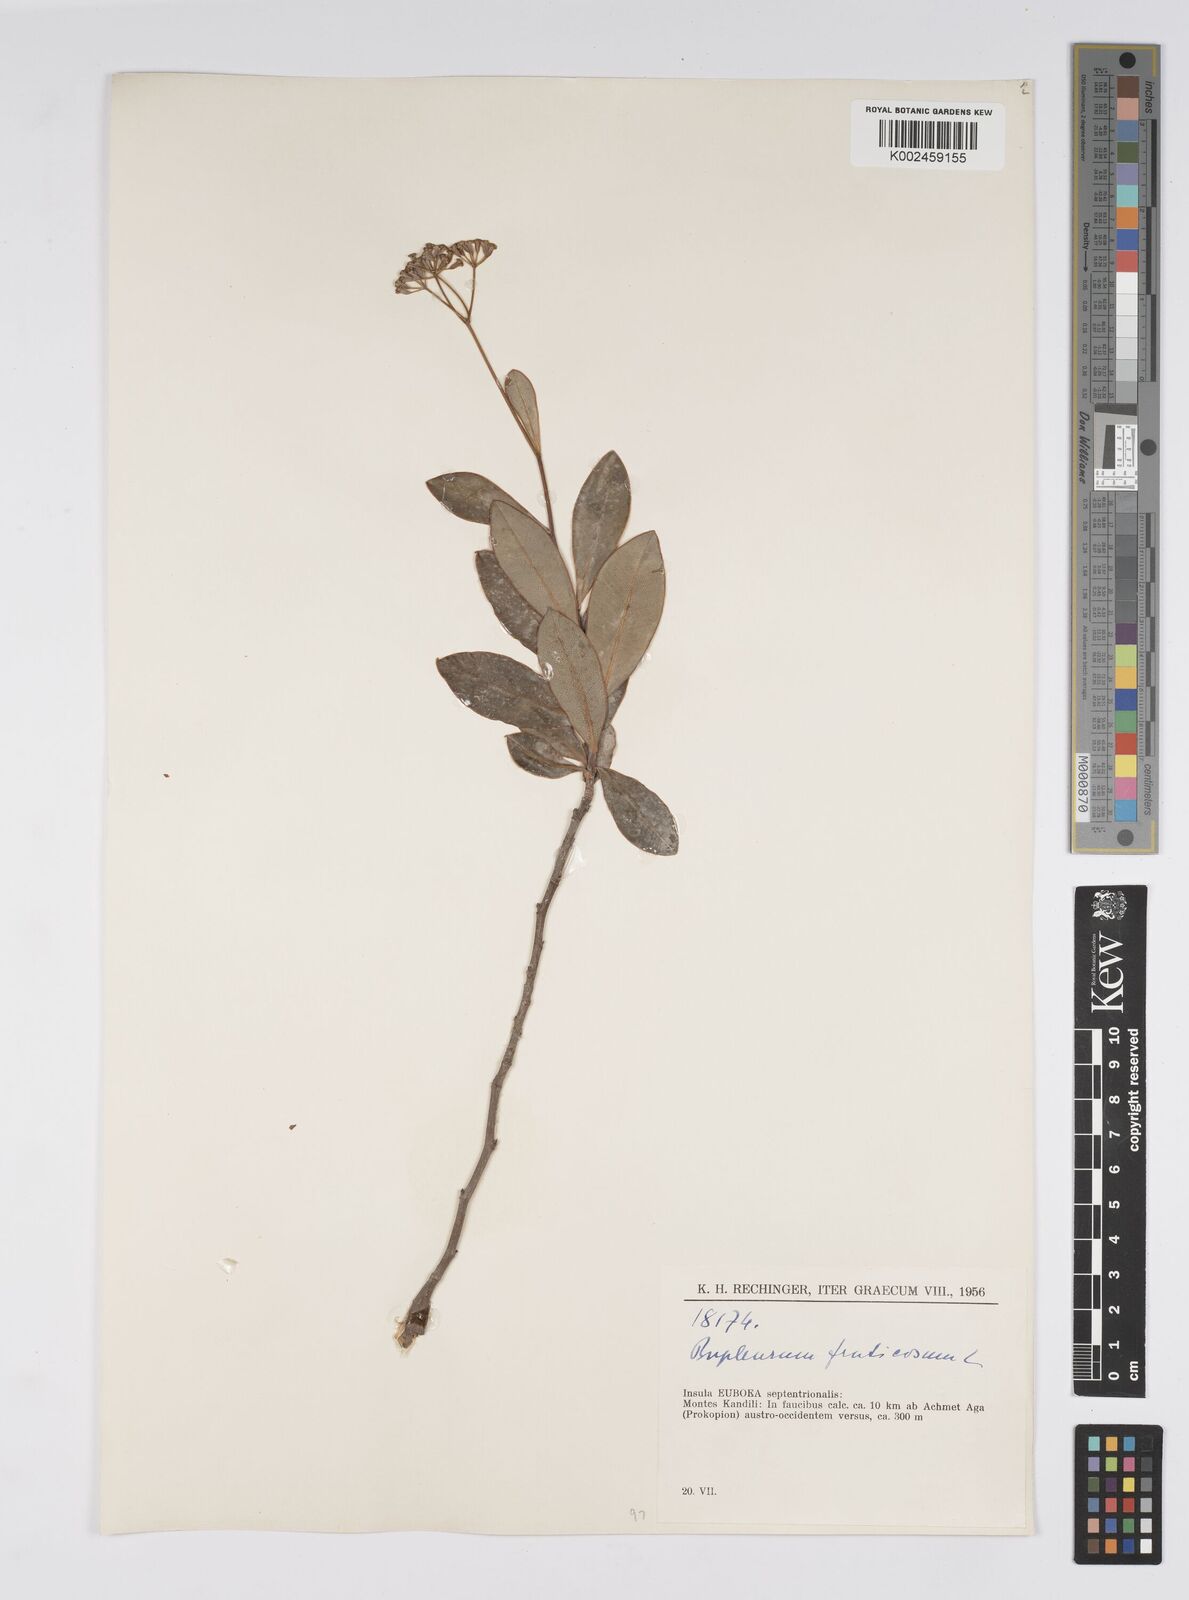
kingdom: Plantae
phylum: Tracheophyta
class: Magnoliopsida
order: Apiales
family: Apiaceae
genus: Bupleurum
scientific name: Bupleurum fruticosum
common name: Shrubby hare's-ear
